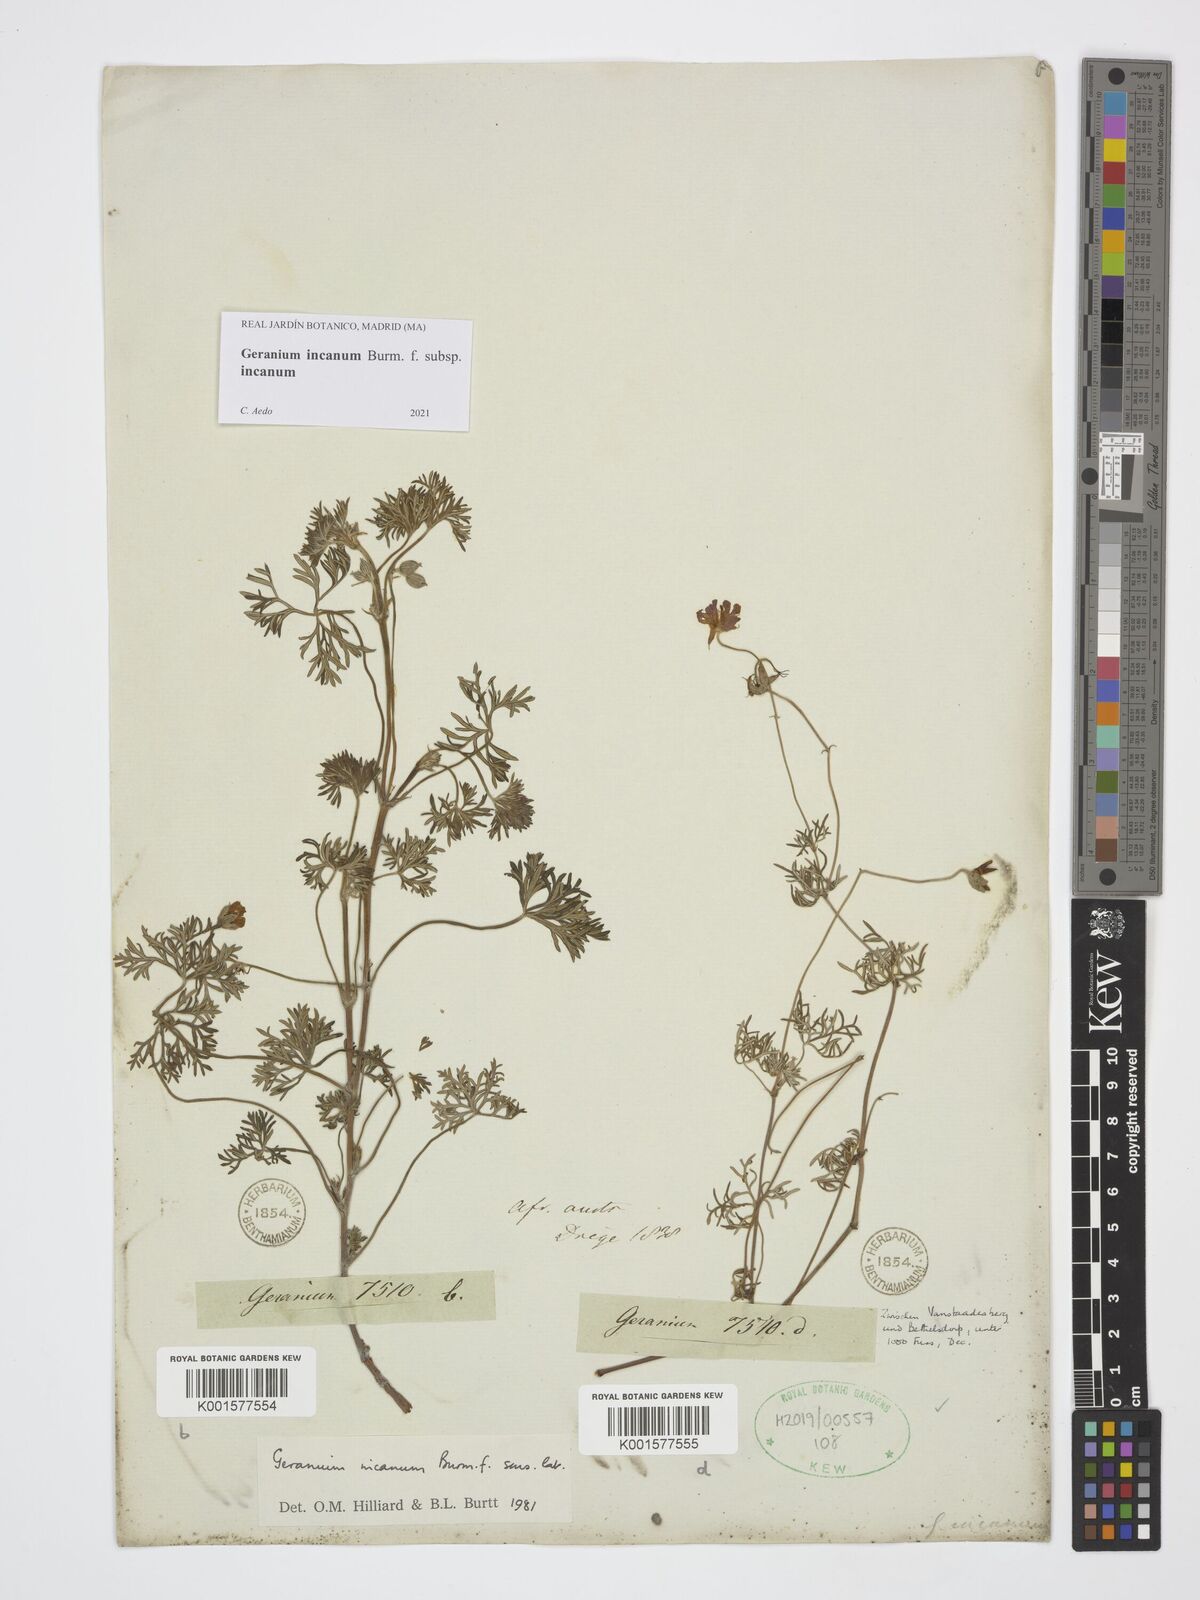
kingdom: Plantae
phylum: Tracheophyta
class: Magnoliopsida
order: Geraniales
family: Geraniaceae
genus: Geranium
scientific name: Geranium incanum
